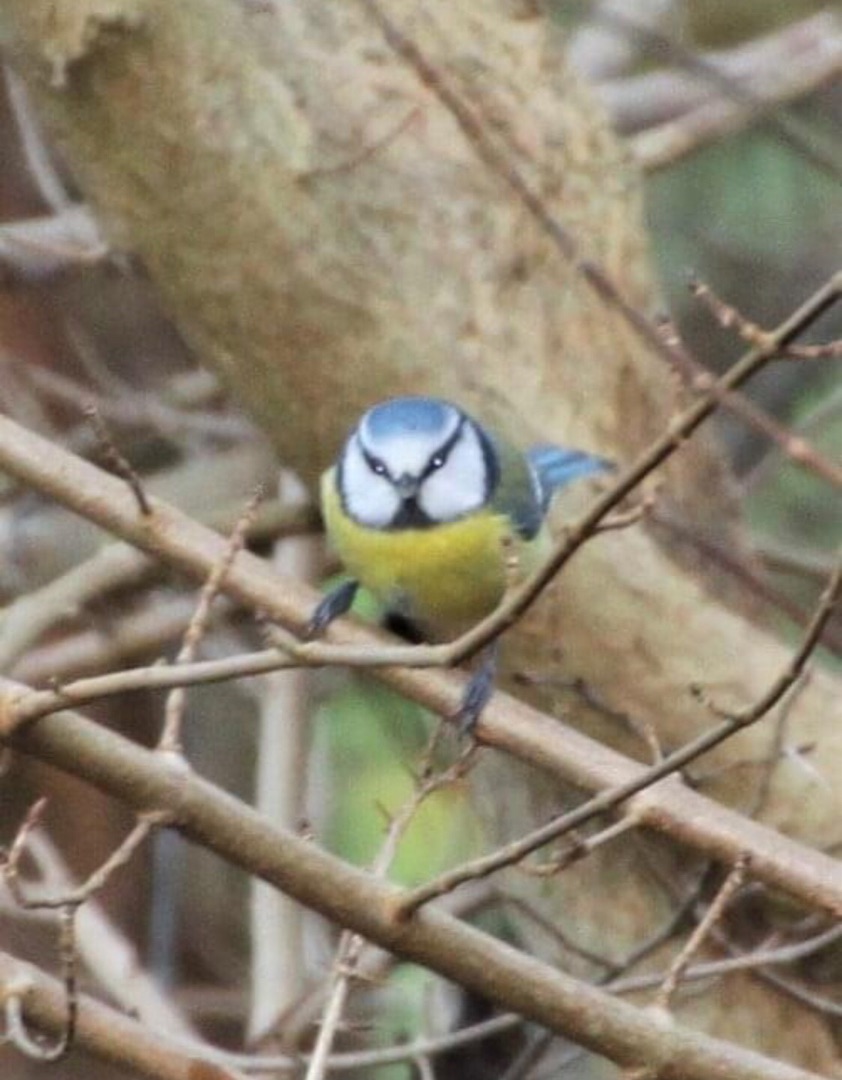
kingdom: Animalia
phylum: Chordata
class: Aves
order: Passeriformes
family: Paridae
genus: Cyanistes
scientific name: Cyanistes caeruleus
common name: Blåmejse
